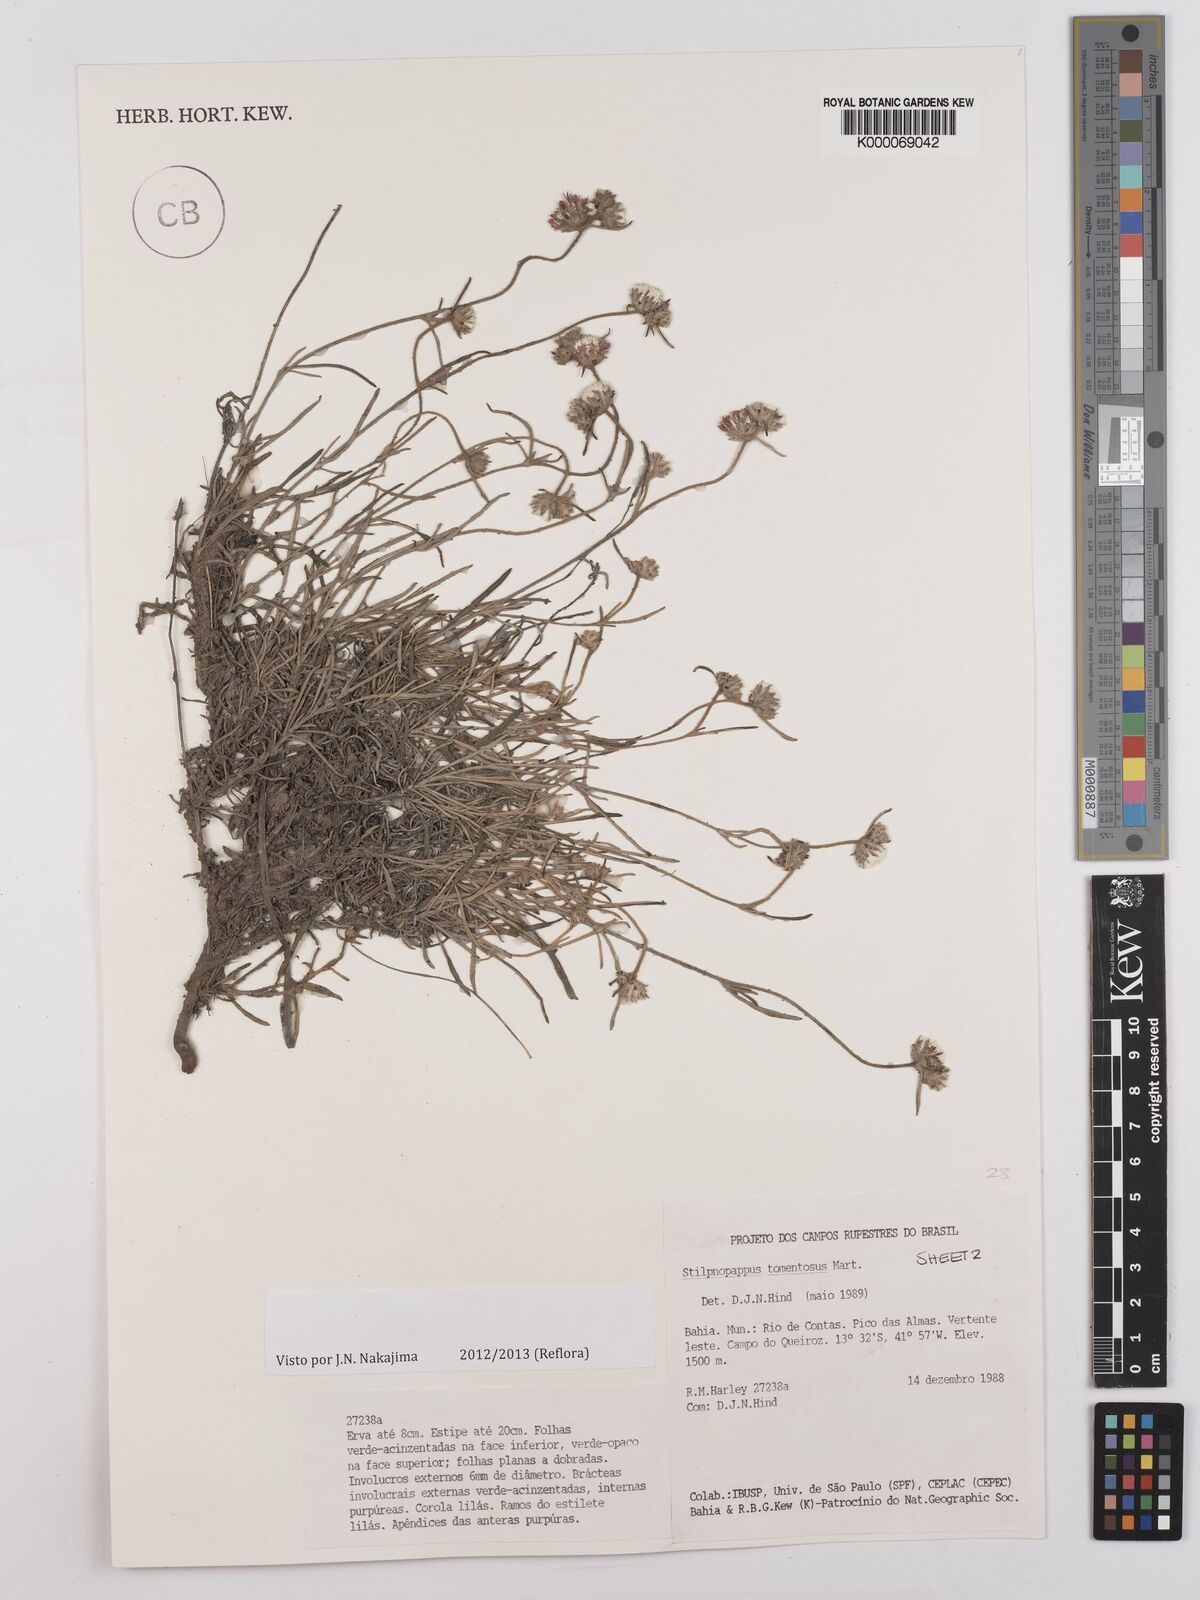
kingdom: Plantae
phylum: Tracheophyta
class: Magnoliopsida
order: Asterales
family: Asteraceae
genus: Stilpnopappus
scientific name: Stilpnopappus tomentosus
